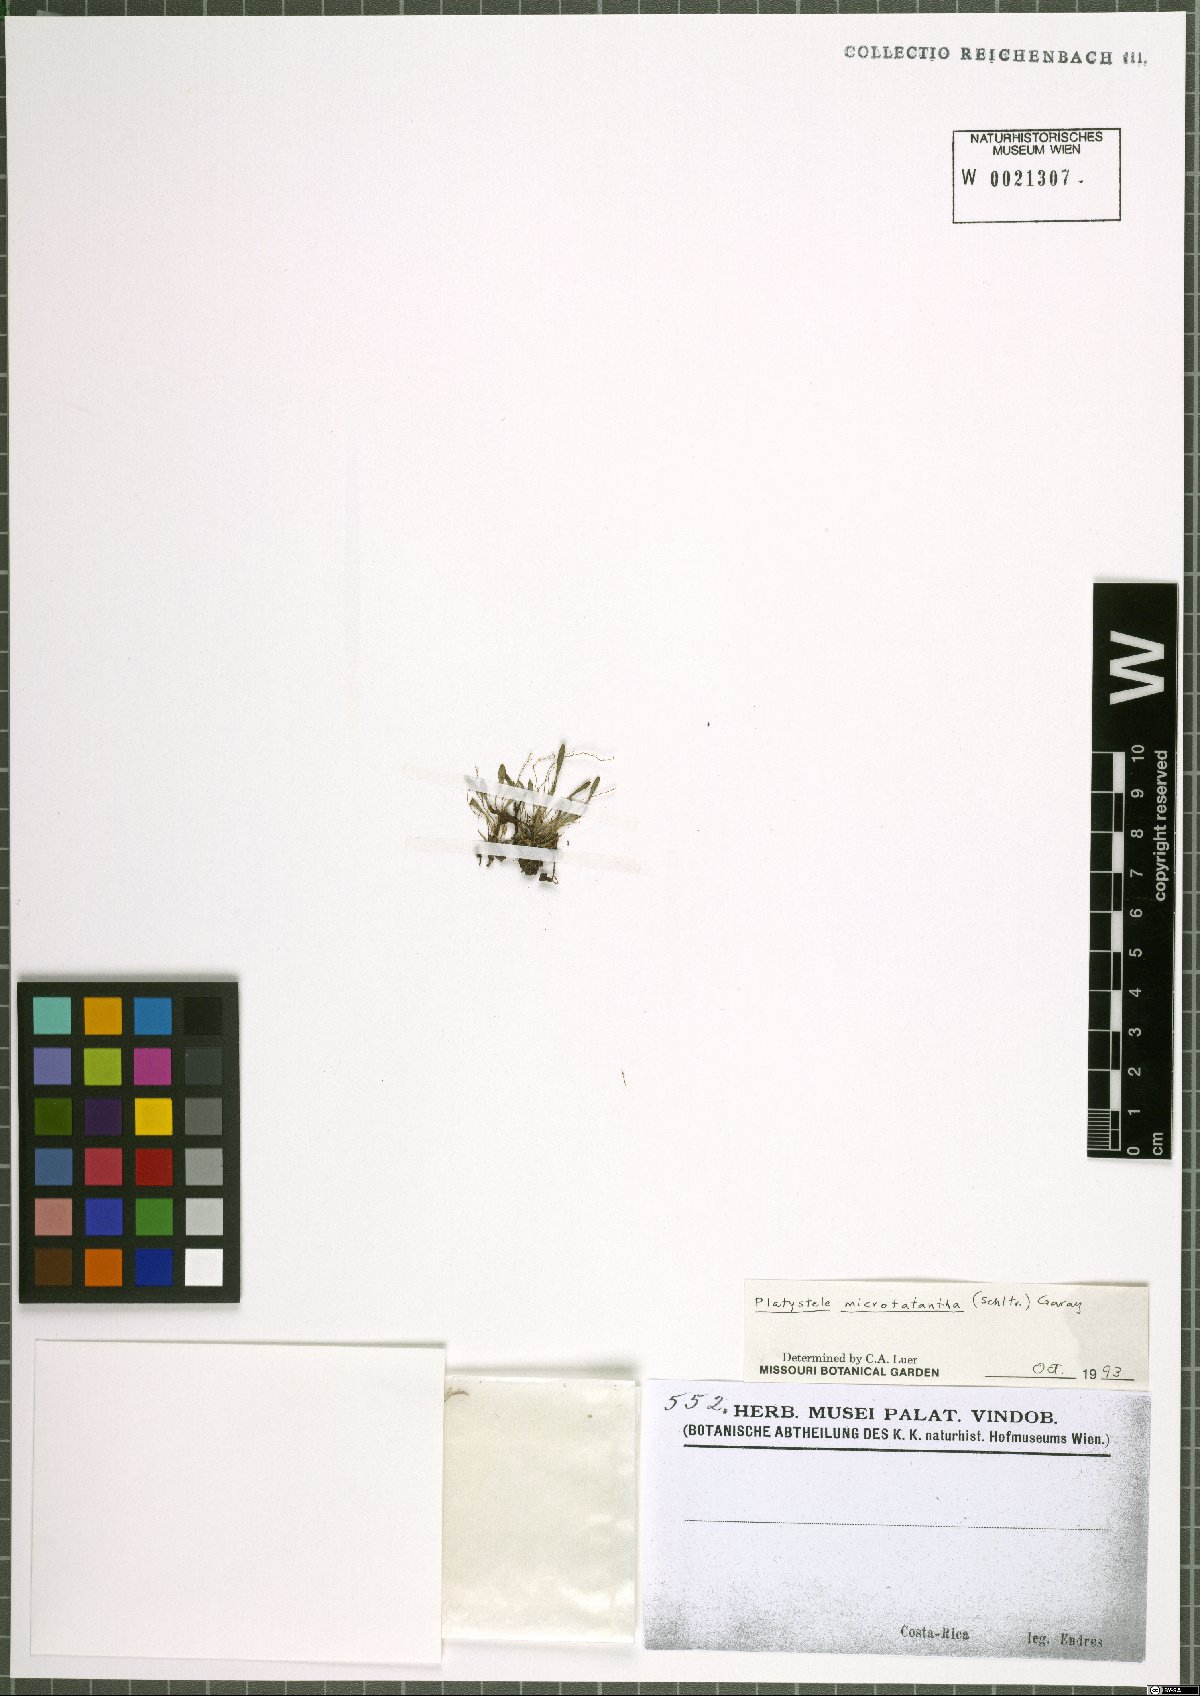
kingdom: Plantae
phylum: Tracheophyta
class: Liliopsida
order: Asparagales
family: Orchidaceae
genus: Platystele
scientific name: Platystele microtatantha
